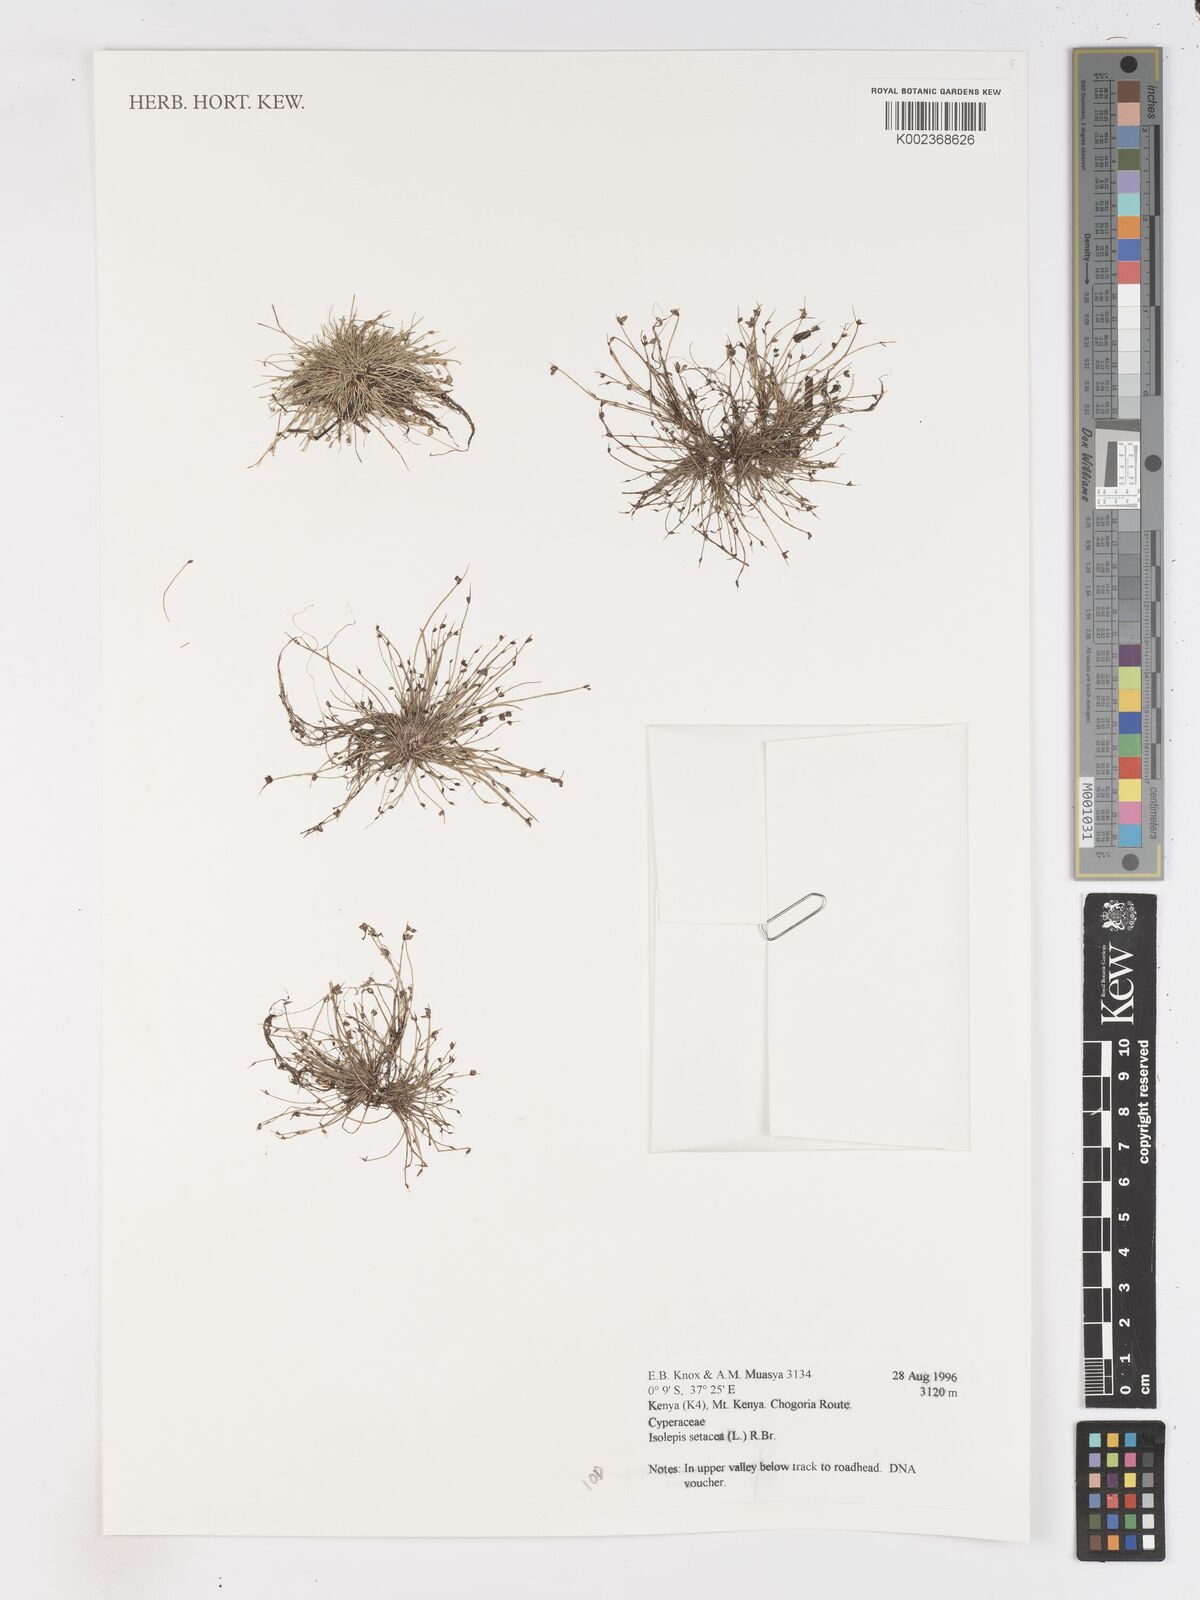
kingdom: Plantae
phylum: Tracheophyta
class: Liliopsida
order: Poales
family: Cyperaceae
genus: Isolepis
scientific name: Isolepis setacea
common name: Bristle club-rush
